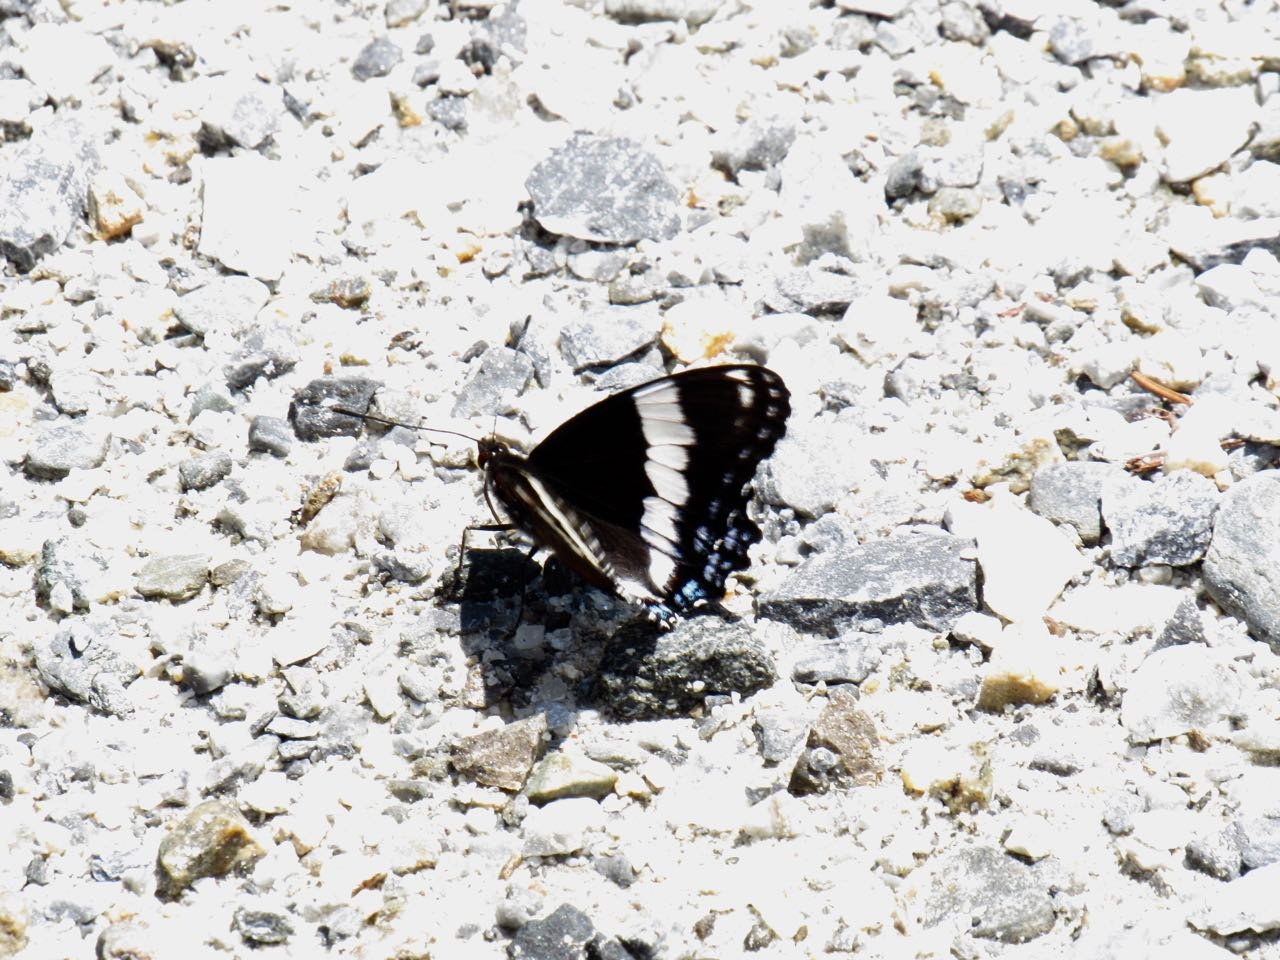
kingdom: Animalia
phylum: Arthropoda
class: Insecta
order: Lepidoptera
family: Nymphalidae
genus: Limenitis
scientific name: Limenitis arthemis
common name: Red-spotted Admiral
